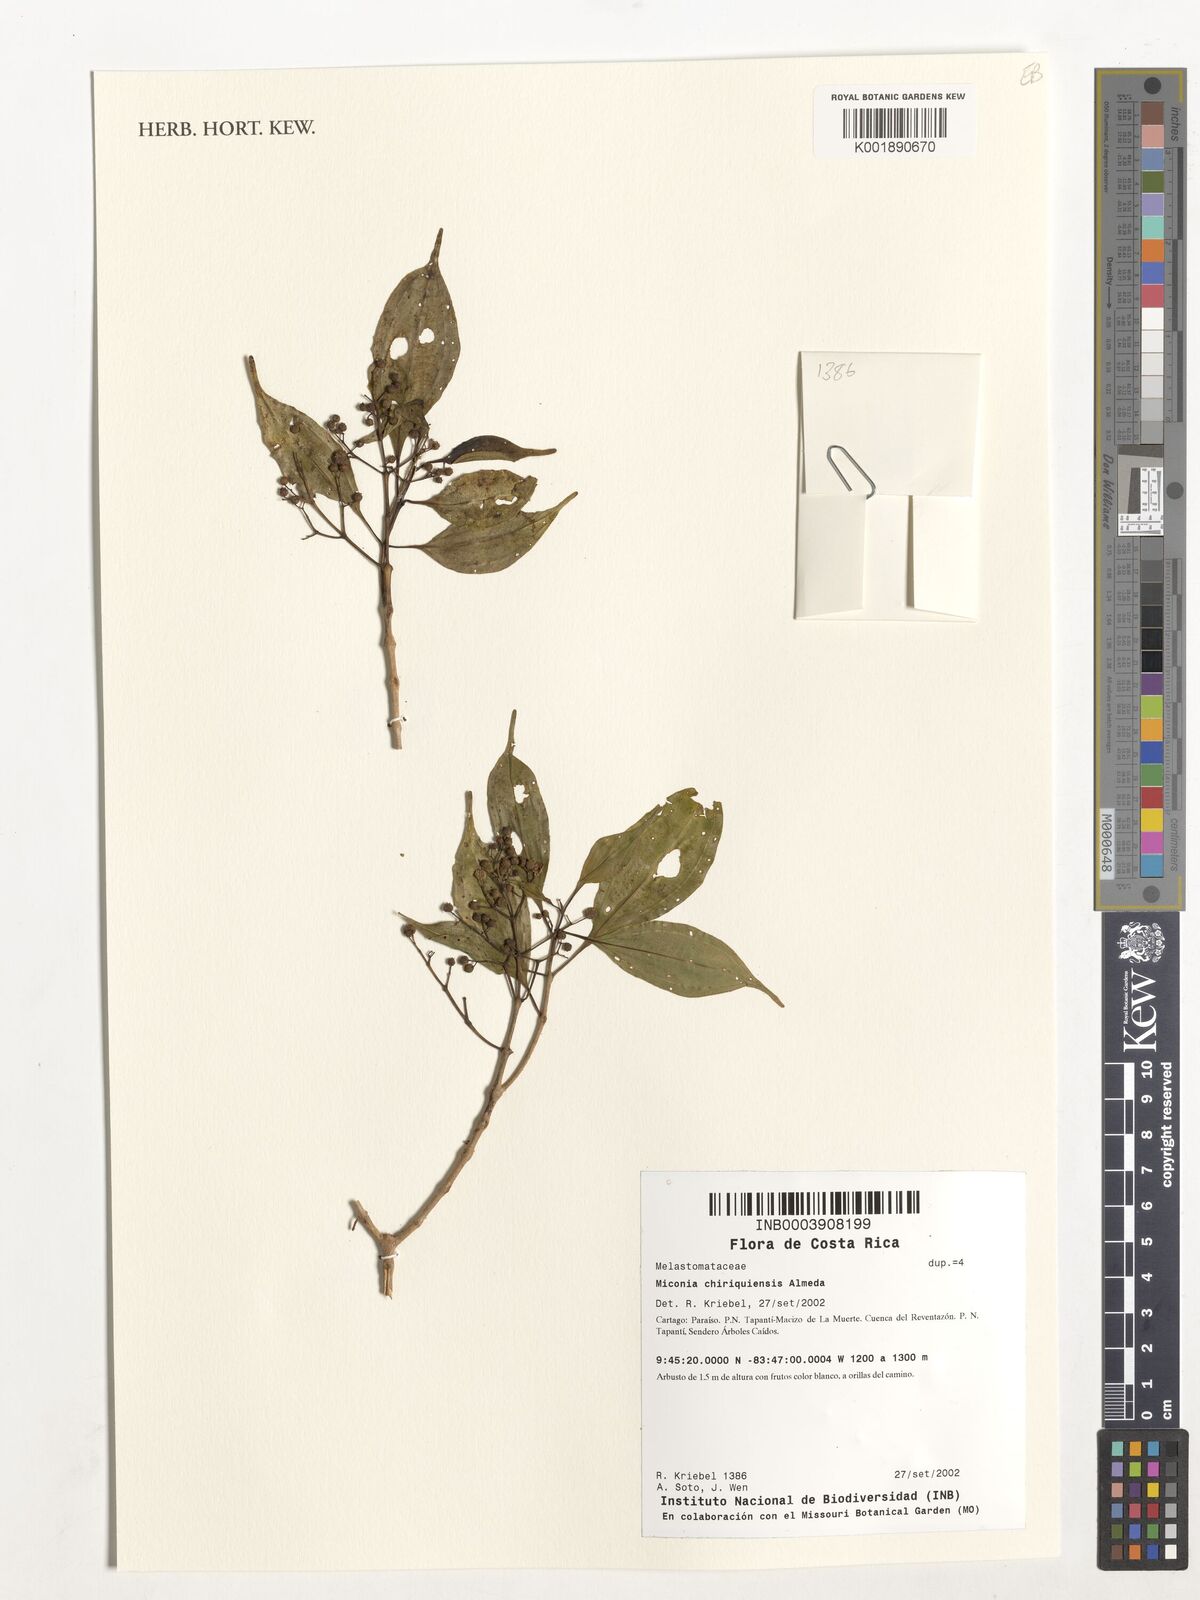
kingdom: Plantae
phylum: Tracheophyta
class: Magnoliopsida
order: Myrtales
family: Melastomataceae
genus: Miconia
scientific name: Miconia chiriquiensis
